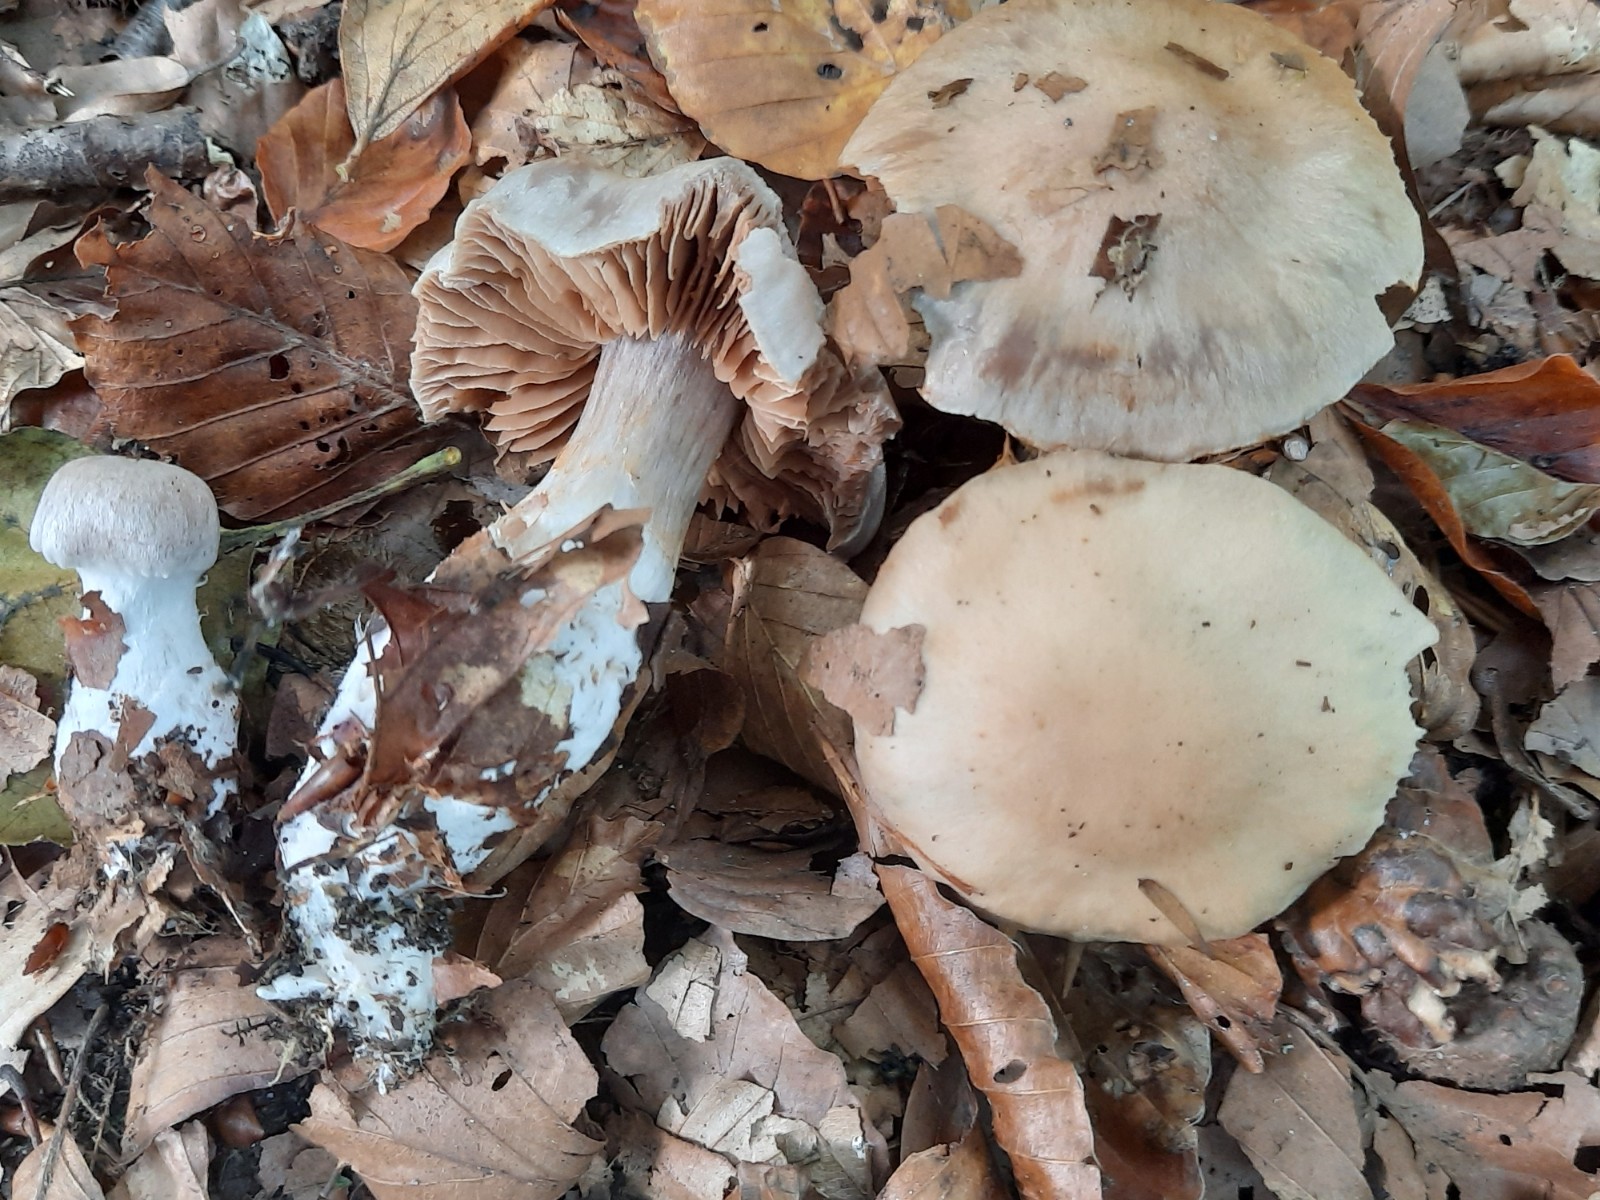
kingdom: Fungi
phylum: Basidiomycota
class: Agaricomycetes
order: Agaricales
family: Cortinariaceae
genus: Cortinarius
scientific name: Cortinarius turgidus
